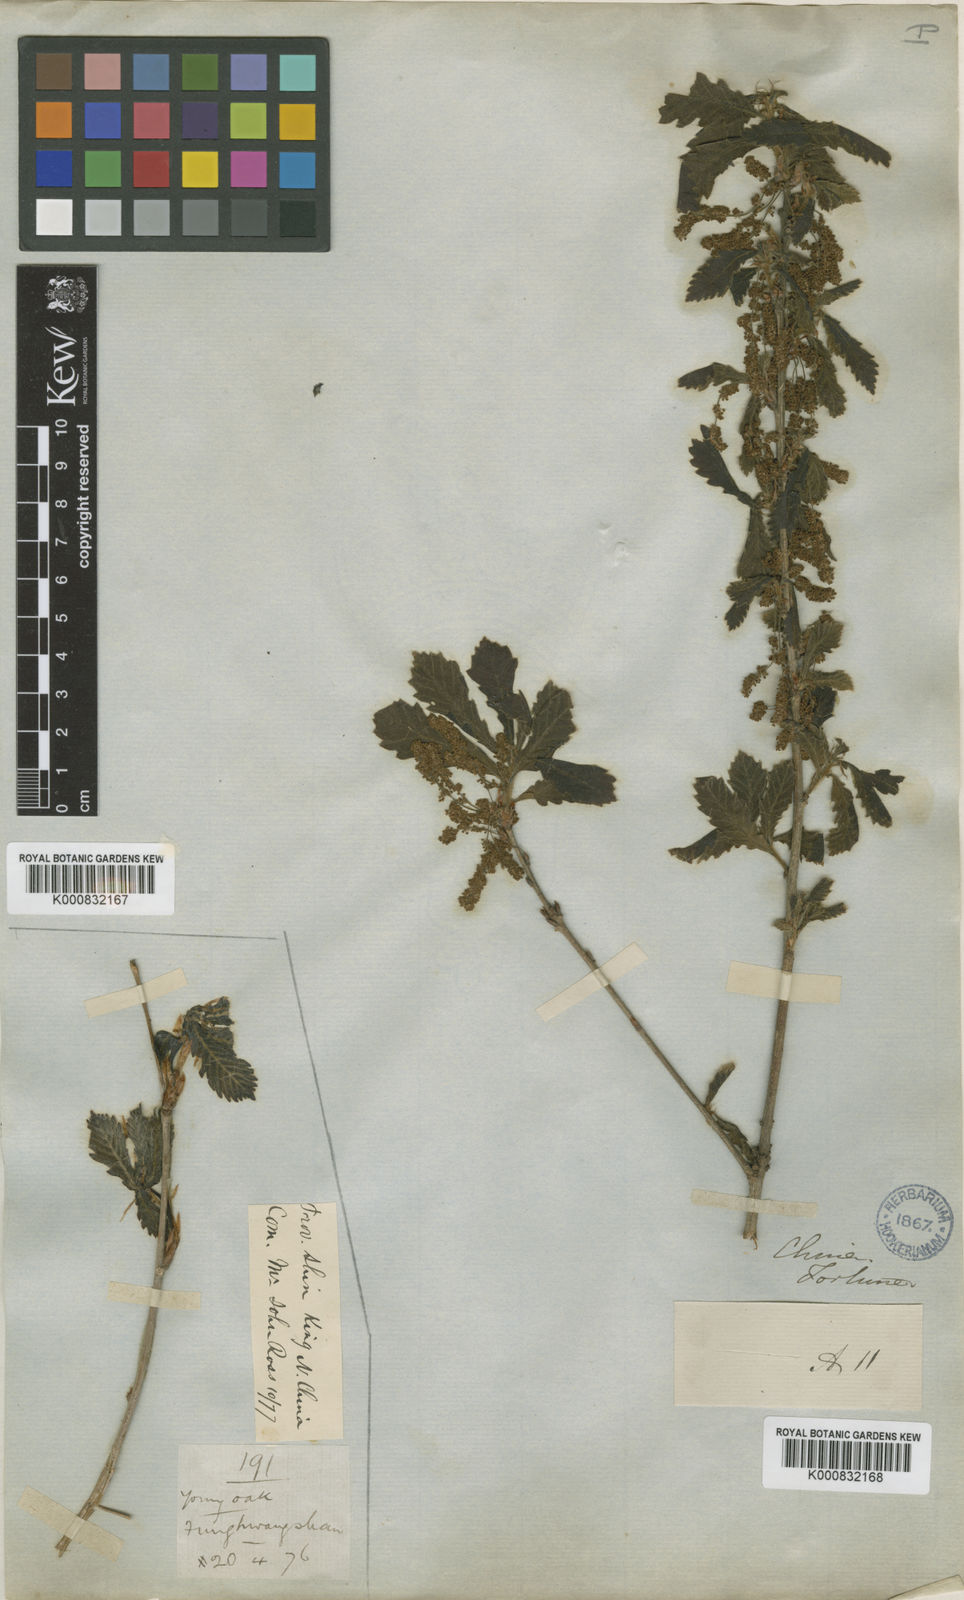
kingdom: Plantae
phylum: Tracheophyta
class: Magnoliopsida
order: Fagales
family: Fagaceae
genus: Quercus
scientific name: Quercus fabrei
